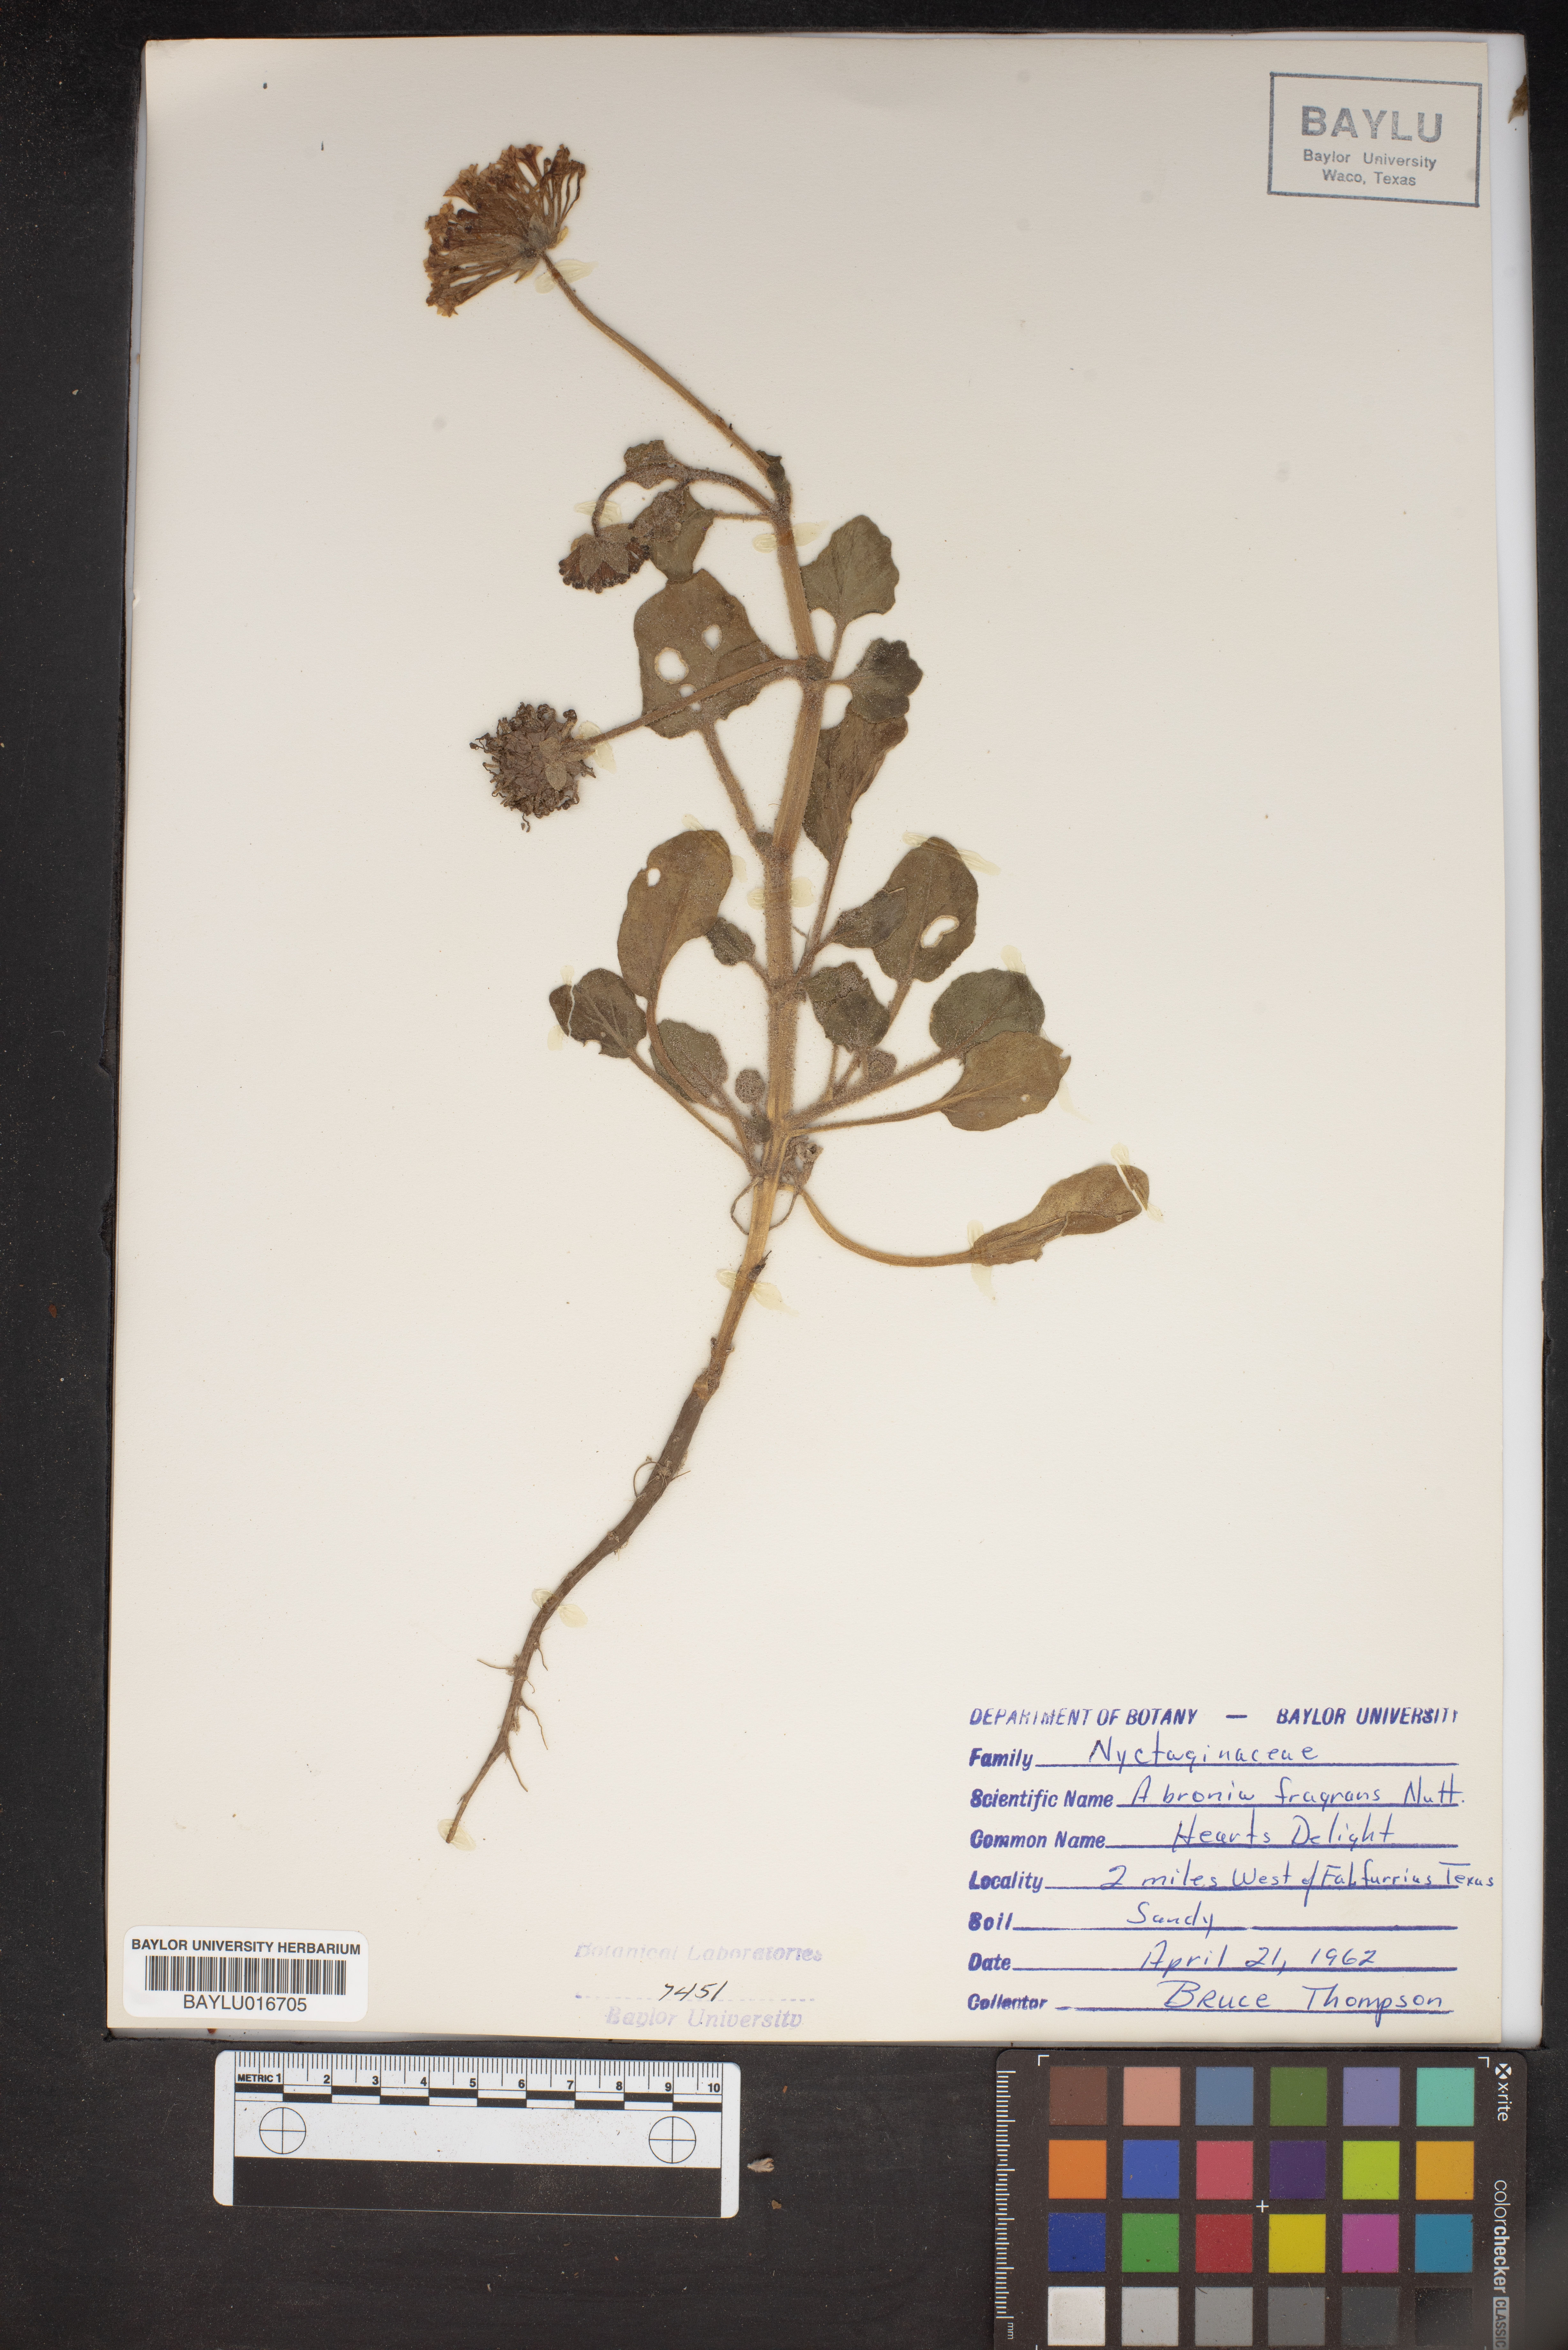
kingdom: Plantae
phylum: Tracheophyta
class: Magnoliopsida
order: Caryophyllales
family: Nyctaginaceae
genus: Abronia
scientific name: Abronia fragrans
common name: Fragrant sand-verbena
